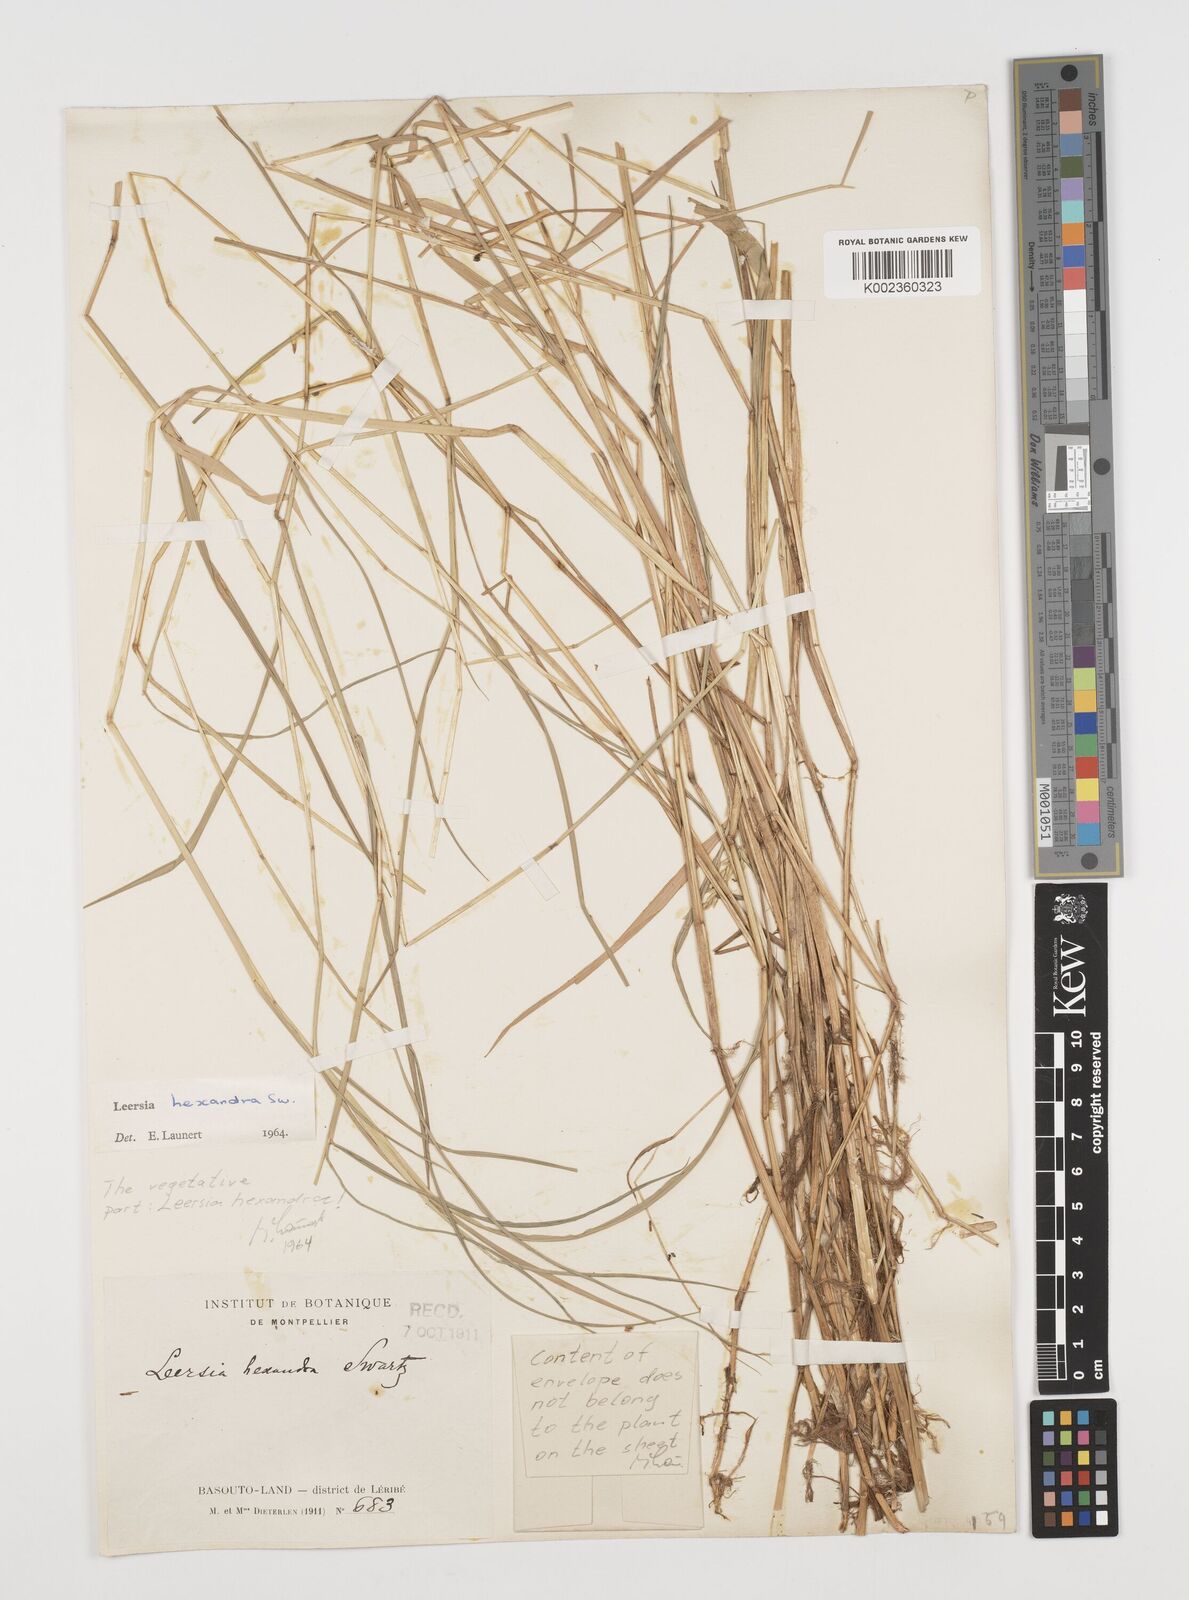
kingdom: Plantae
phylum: Tracheophyta
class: Liliopsida
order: Poales
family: Poaceae
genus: Leersia
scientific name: Leersia hexandra
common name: Southern cut grass
